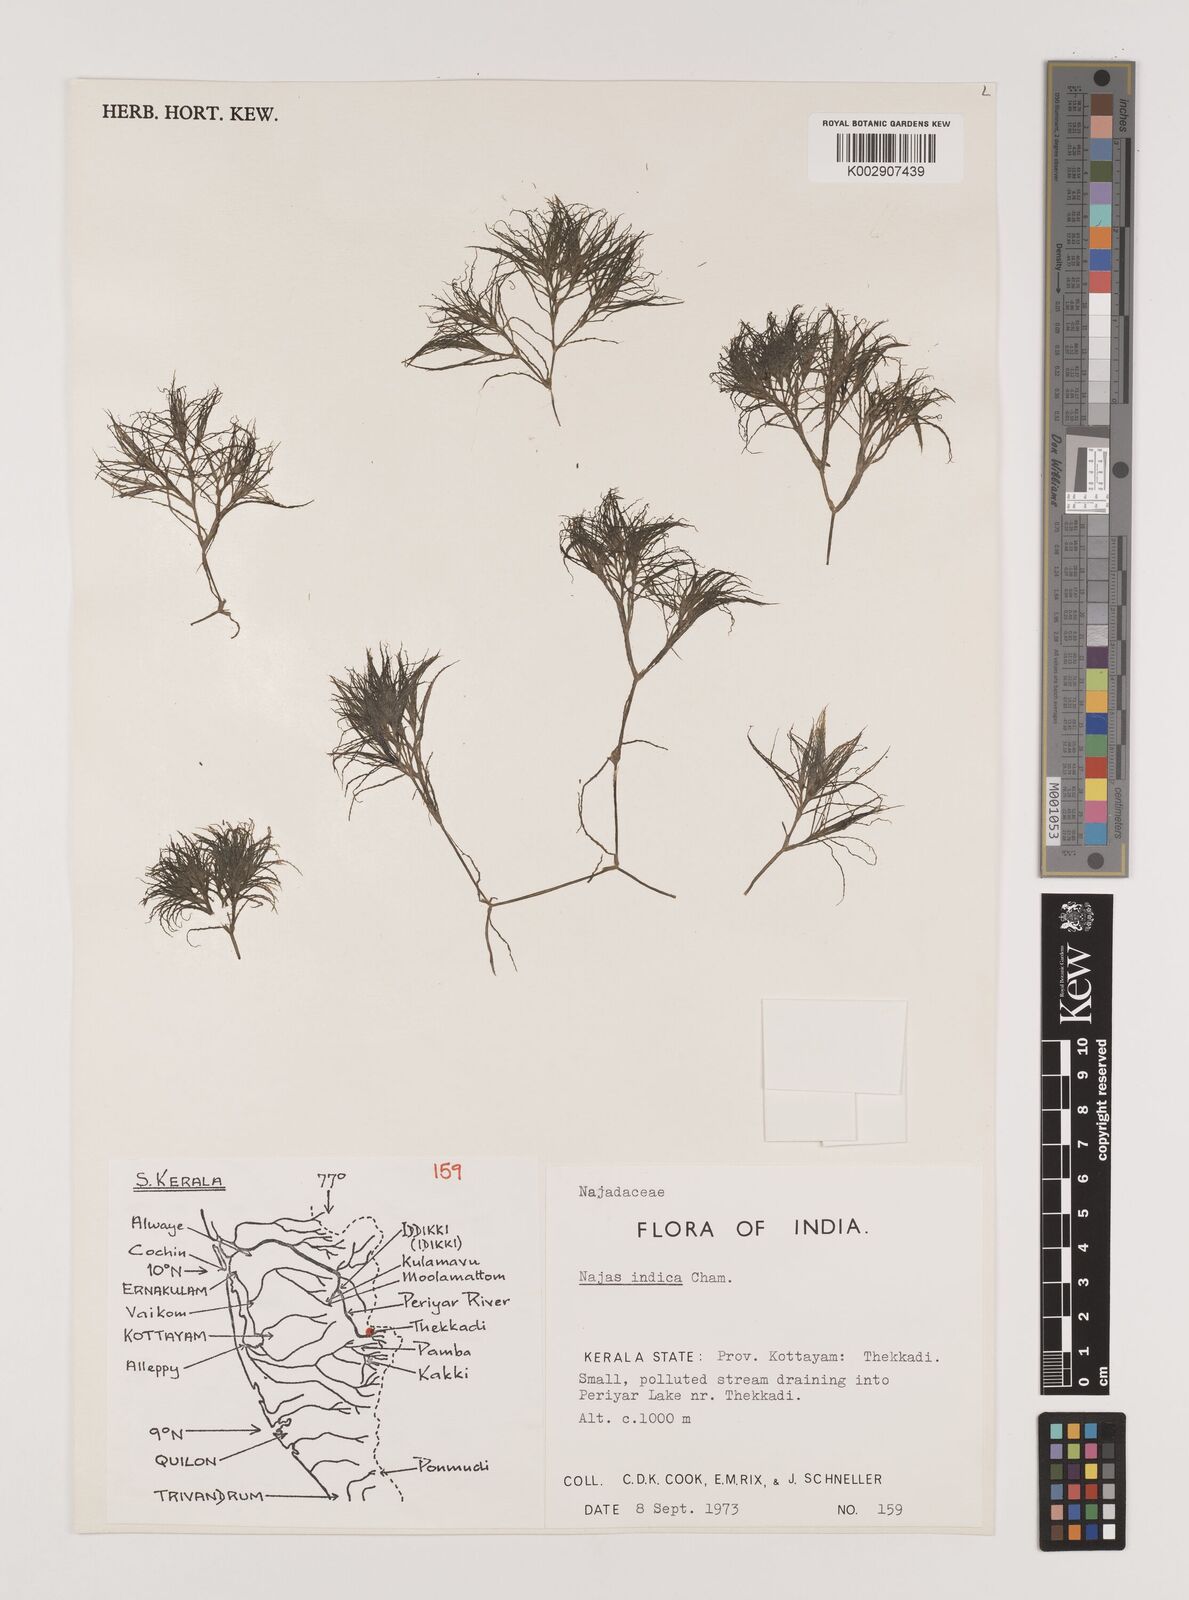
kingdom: Plantae
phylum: Tracheophyta
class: Liliopsida
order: Alismatales
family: Hydrocharitaceae
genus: Najas
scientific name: Najas indica
